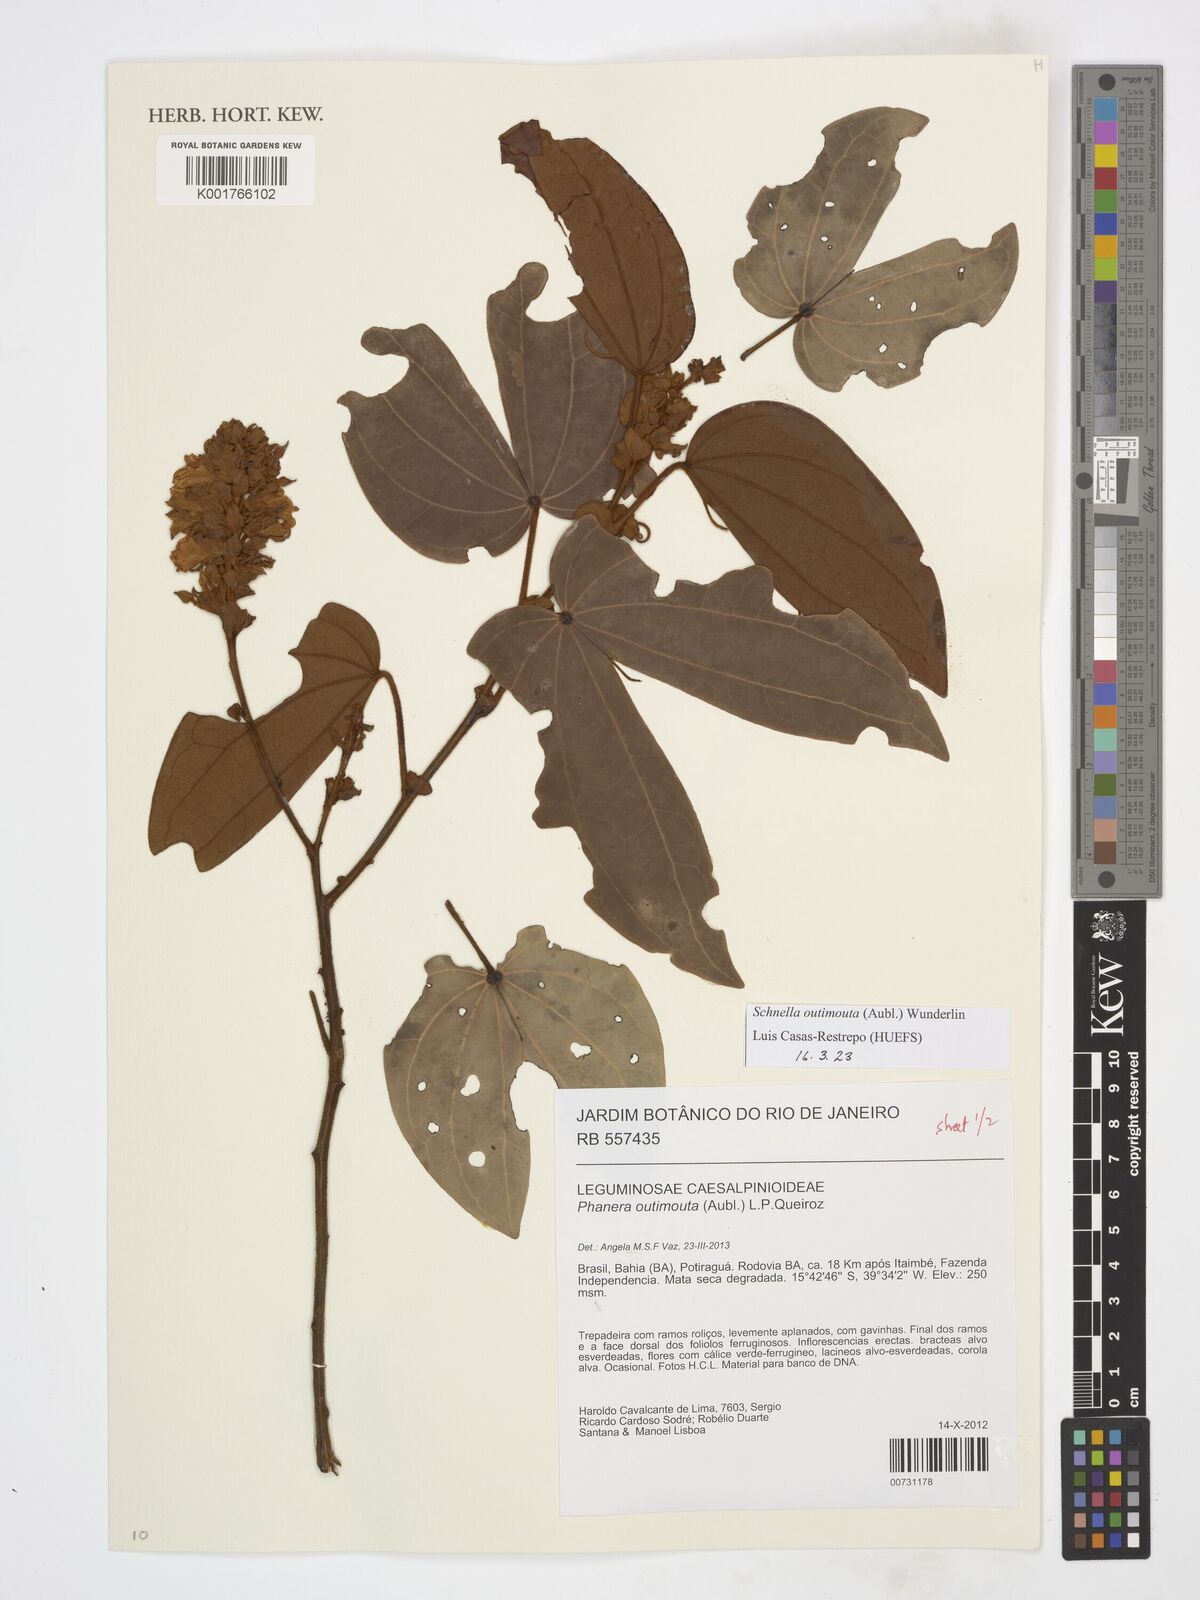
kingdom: Plantae
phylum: Tracheophyta
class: Magnoliopsida
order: Fabales
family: Fabaceae
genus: Schnella
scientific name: Schnella outimouta
